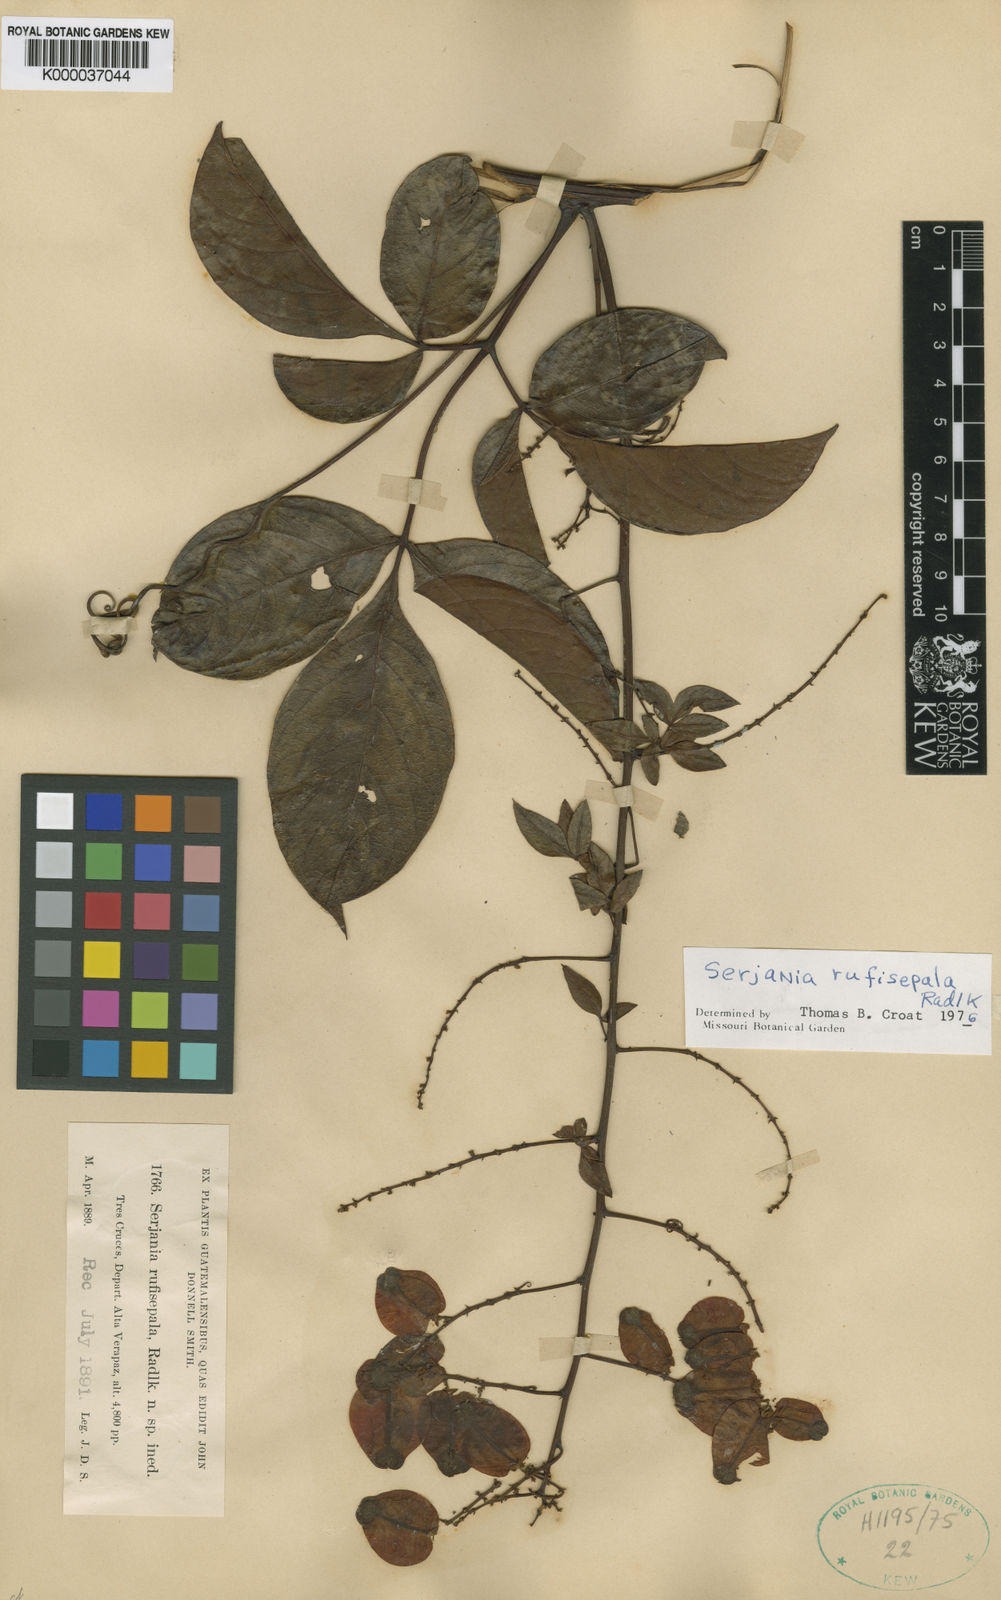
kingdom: Plantae
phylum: Tracheophyta
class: Magnoliopsida
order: Sapindales
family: Sapindaceae
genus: Serjania
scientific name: Serjania rufisepala
